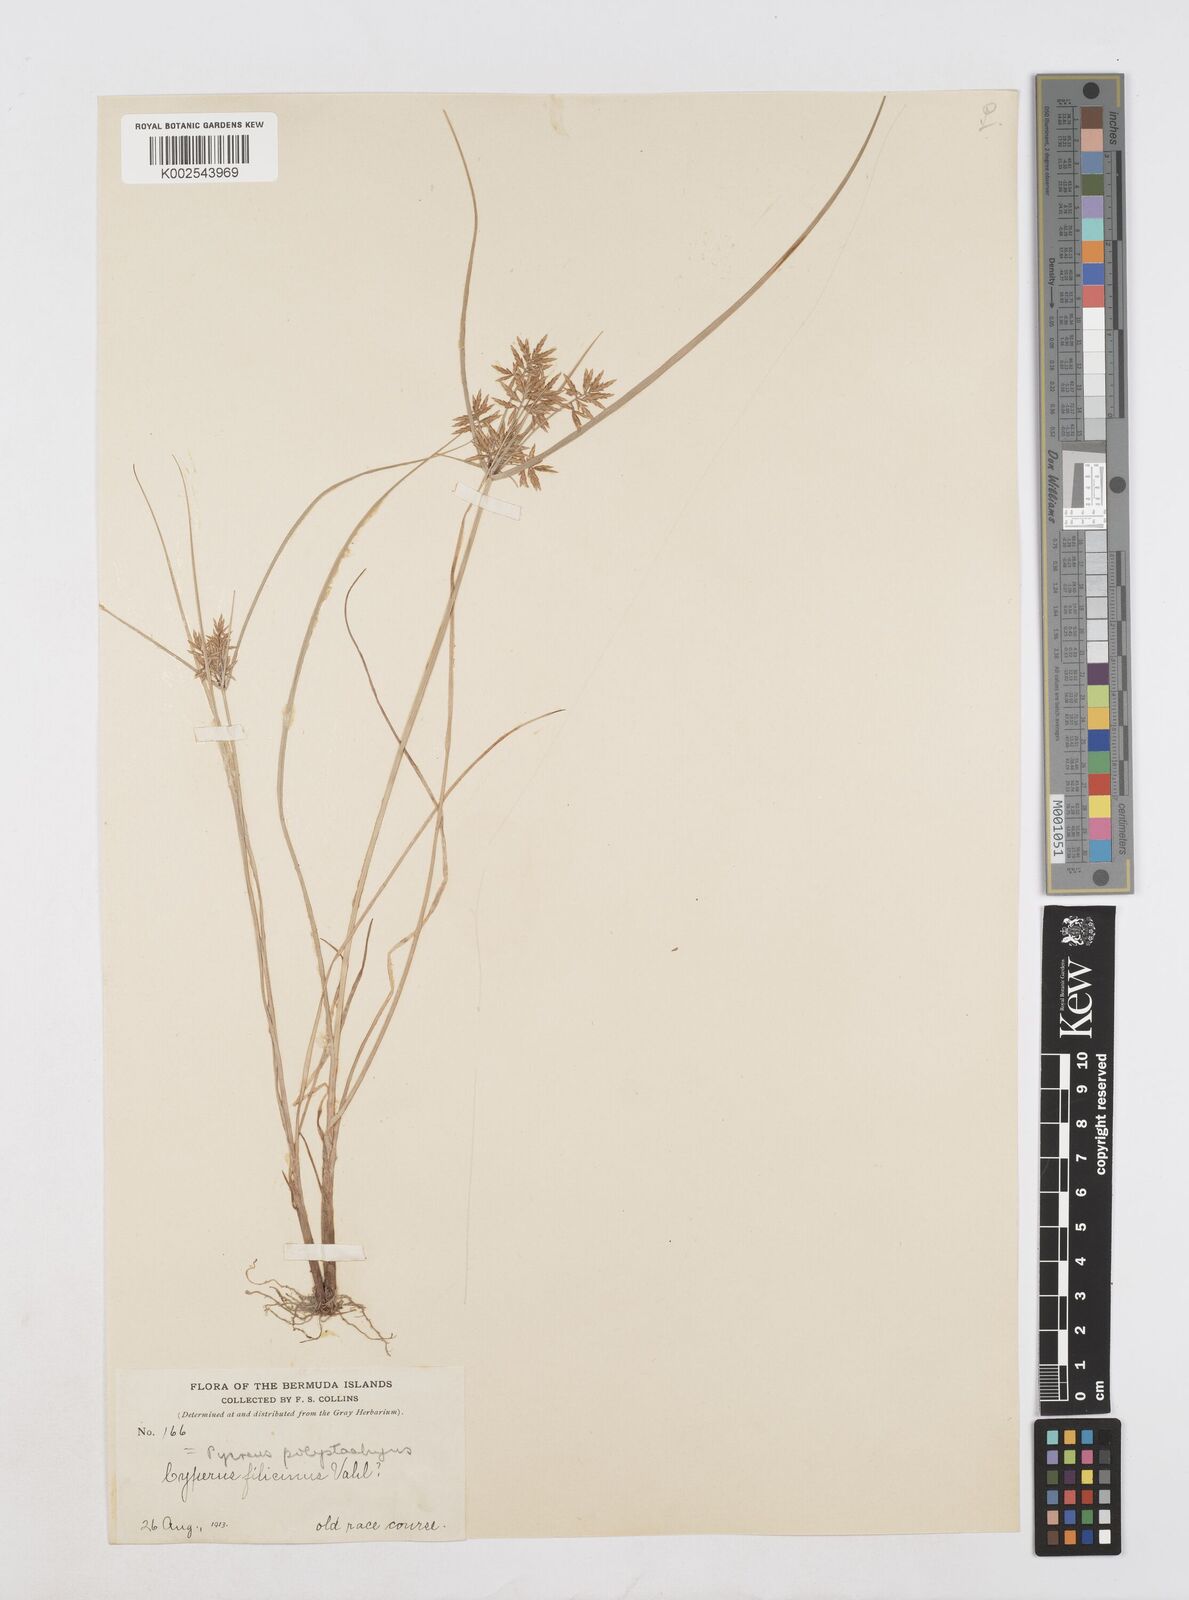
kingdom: Plantae
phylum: Tracheophyta
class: Liliopsida
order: Poales
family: Cyperaceae
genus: Cyperus
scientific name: Cyperus polystachyos
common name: Bunchy flat sedge
